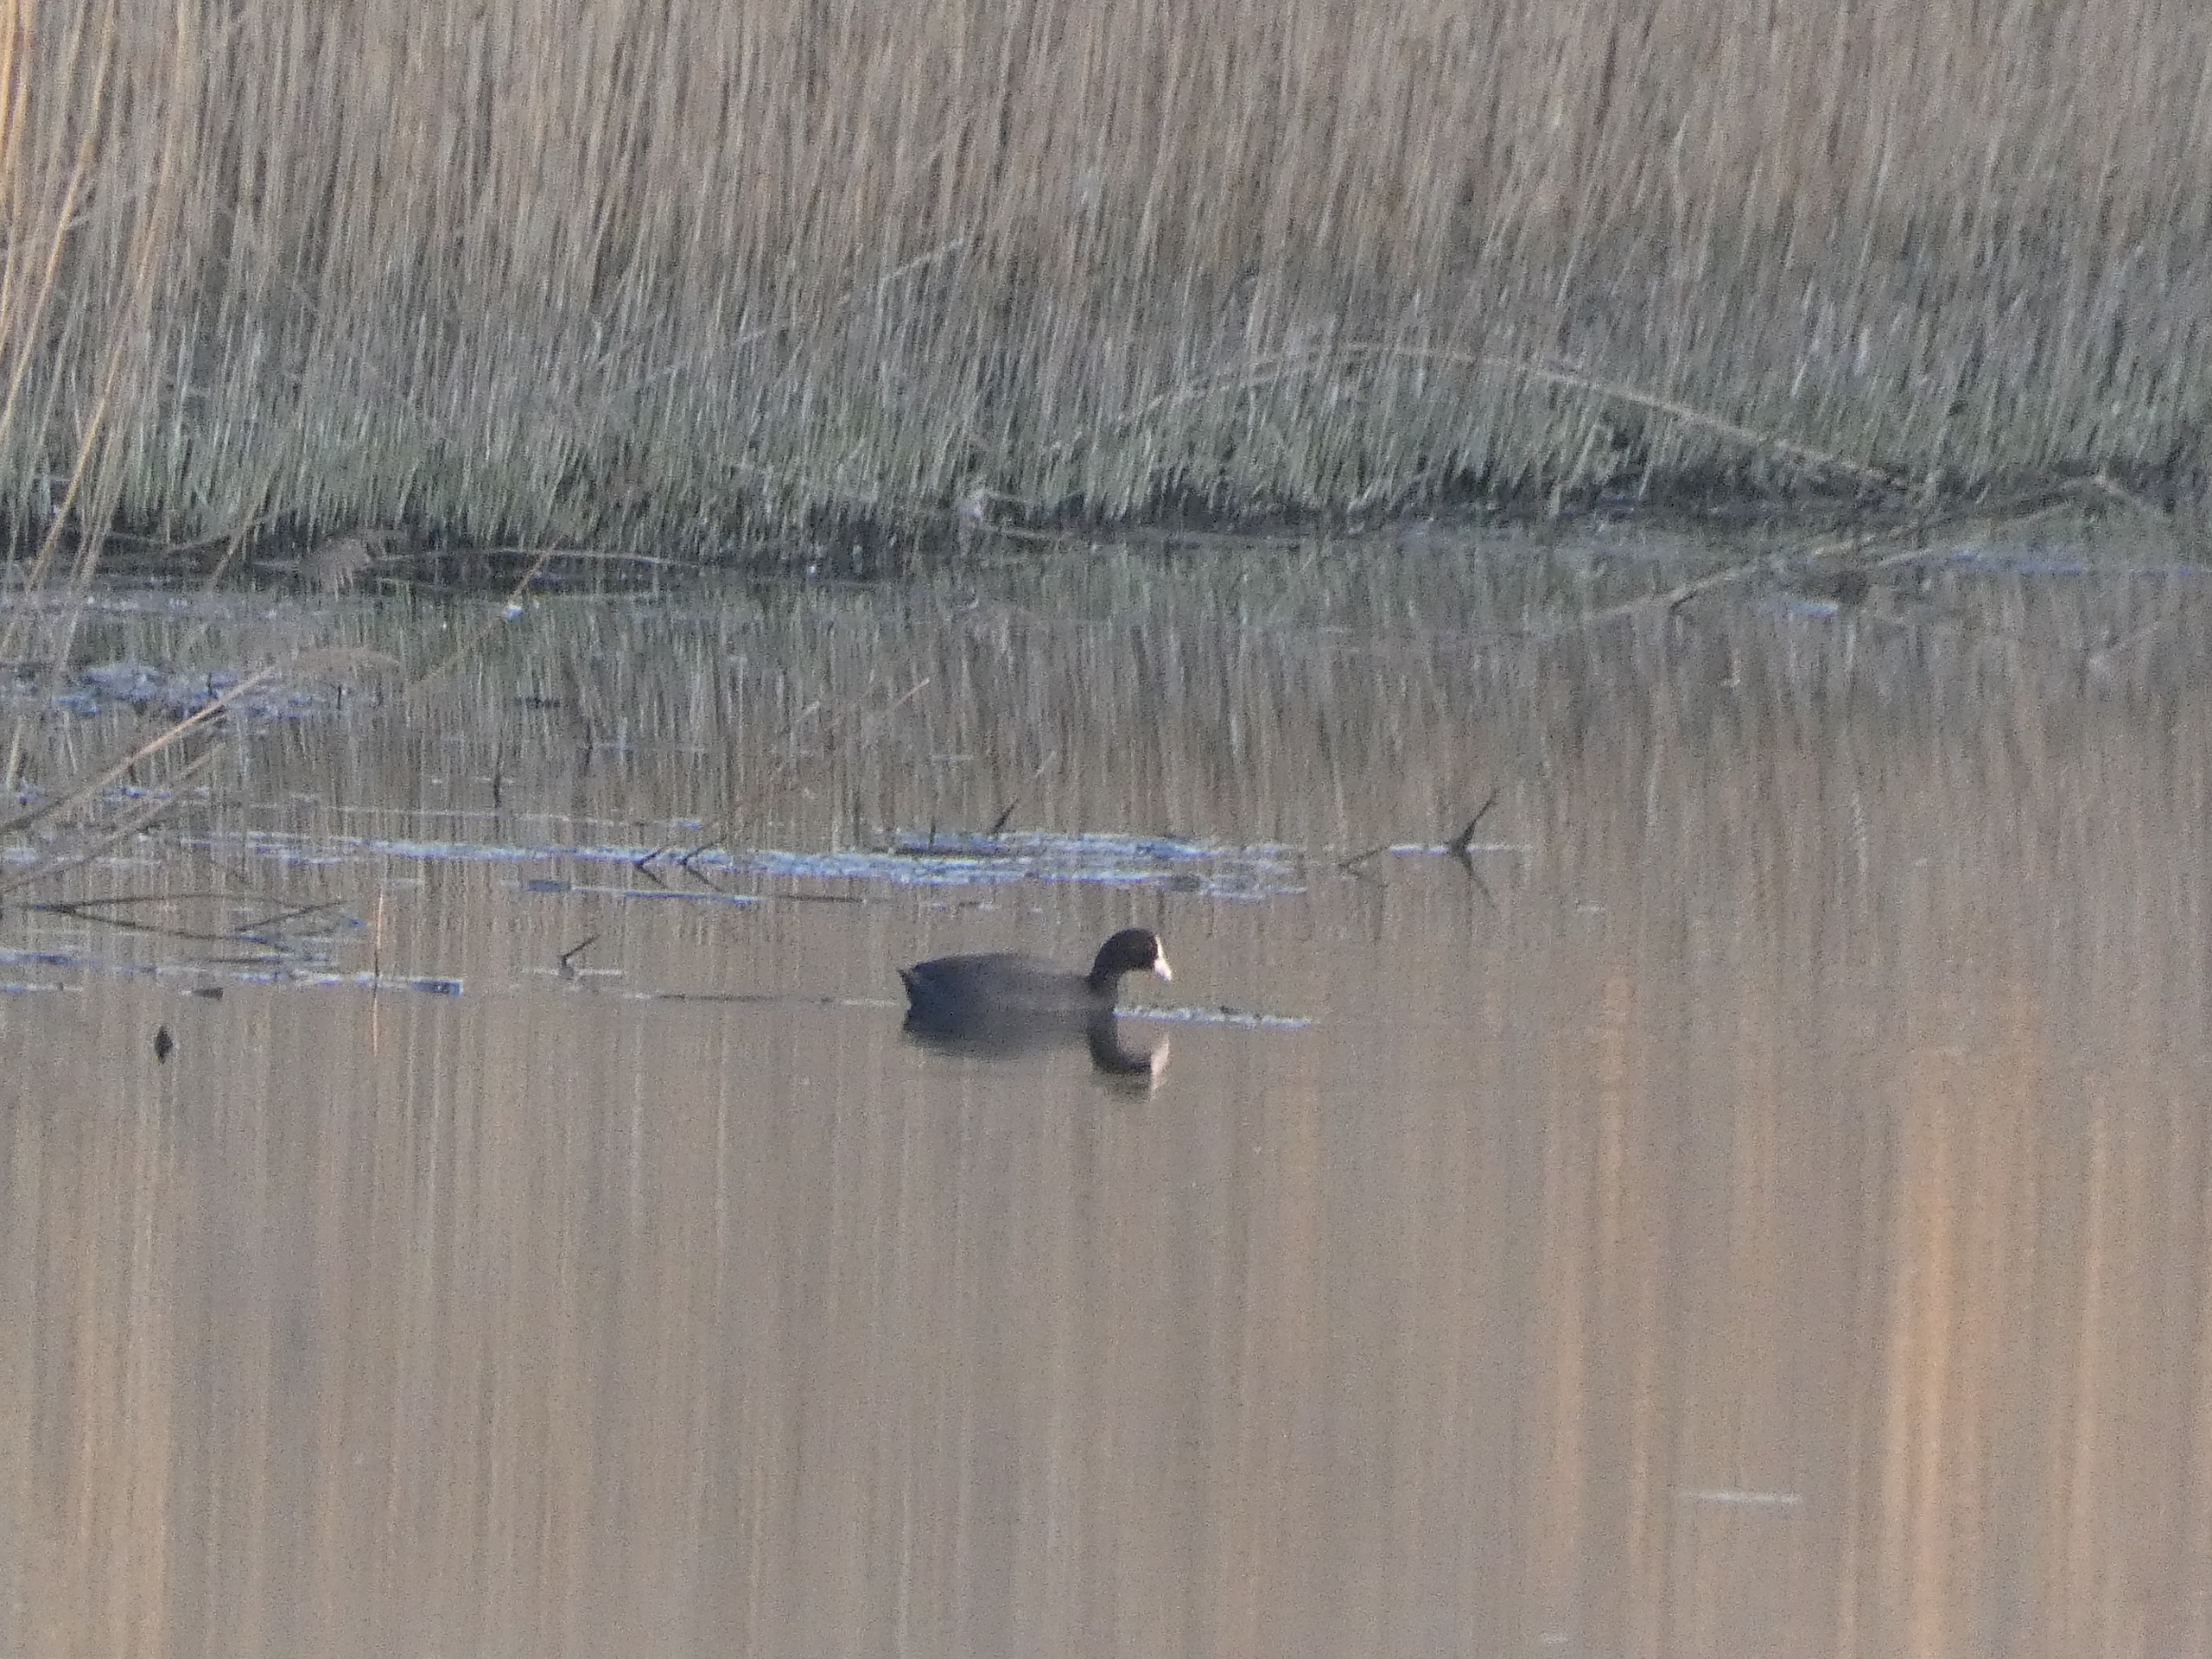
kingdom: Animalia
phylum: Chordata
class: Aves
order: Gruiformes
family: Rallidae
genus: Fulica
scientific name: Fulica atra
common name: Blishøne
